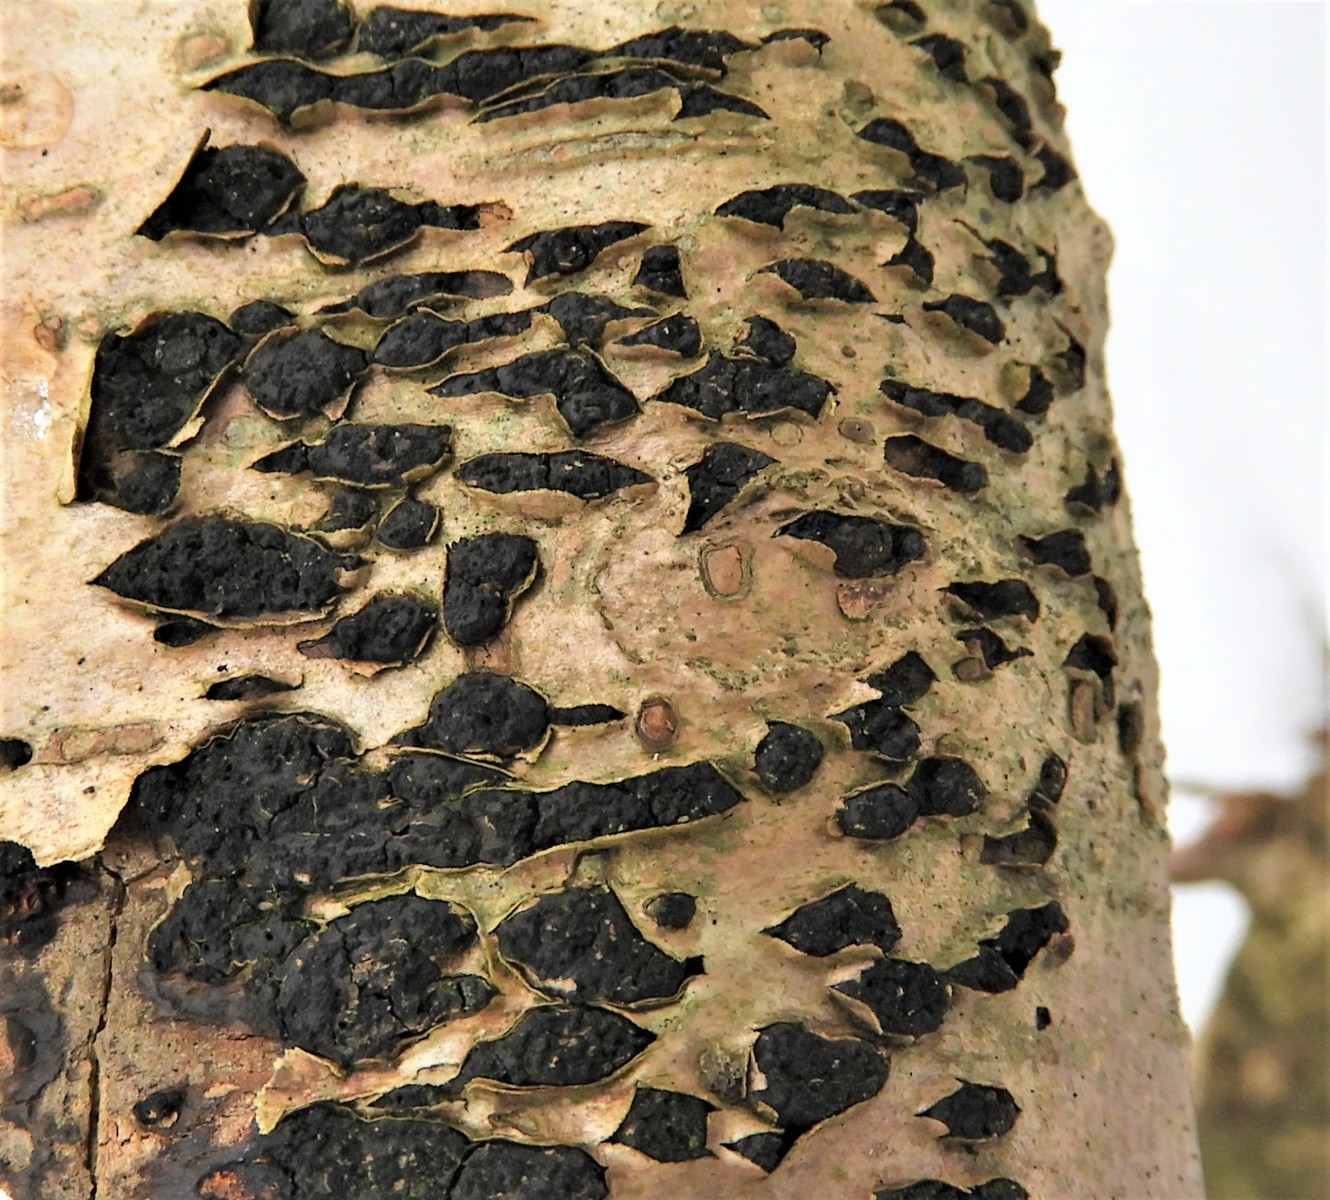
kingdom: Fungi
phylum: Ascomycota
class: Sordariomycetes
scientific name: Sordariomycetes
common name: kernesvampklassen
